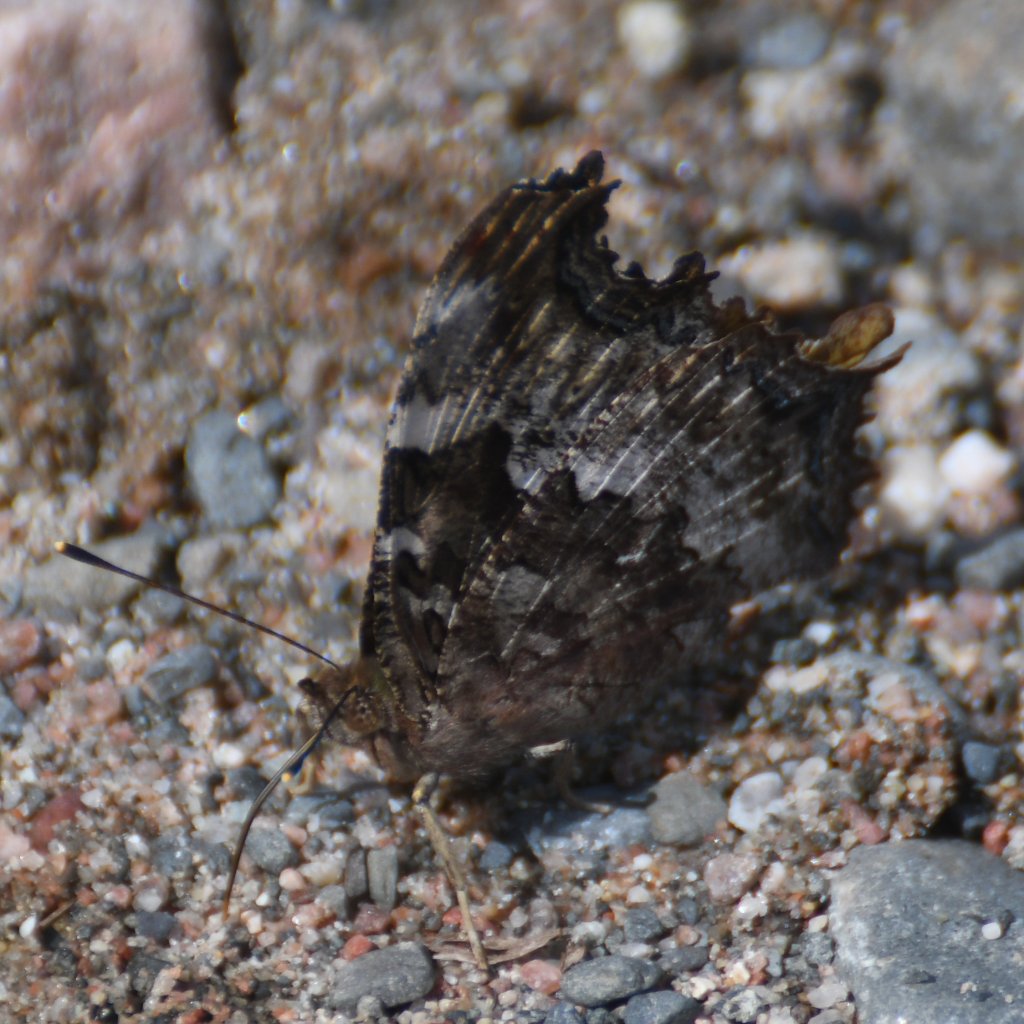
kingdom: Animalia
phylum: Arthropoda
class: Insecta
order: Lepidoptera
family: Nymphalidae
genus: Polygonia
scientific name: Polygonia vaualbum
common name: Compton Tortoiseshell
